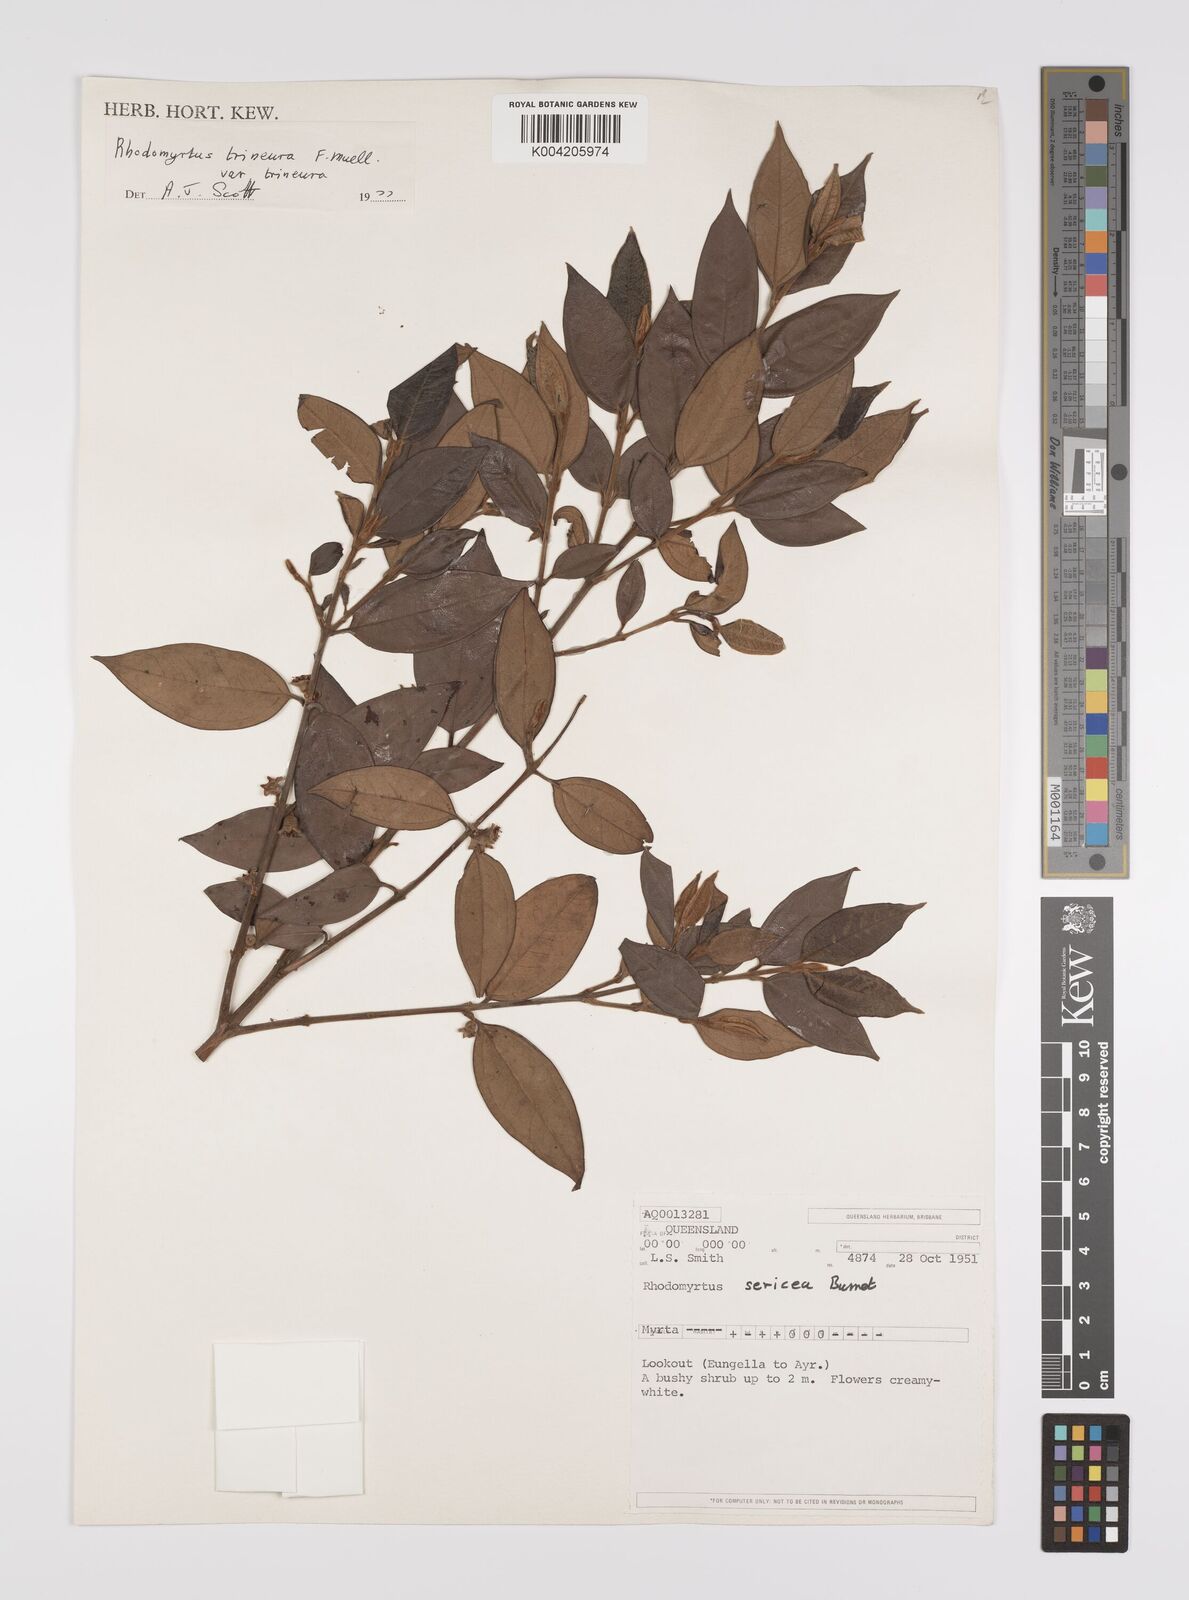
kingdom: Plantae
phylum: Tracheophyta
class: Magnoliopsida
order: Myrtales
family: Myrtaceae
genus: Rhodomyrtus
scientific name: Rhodomyrtus sericea
